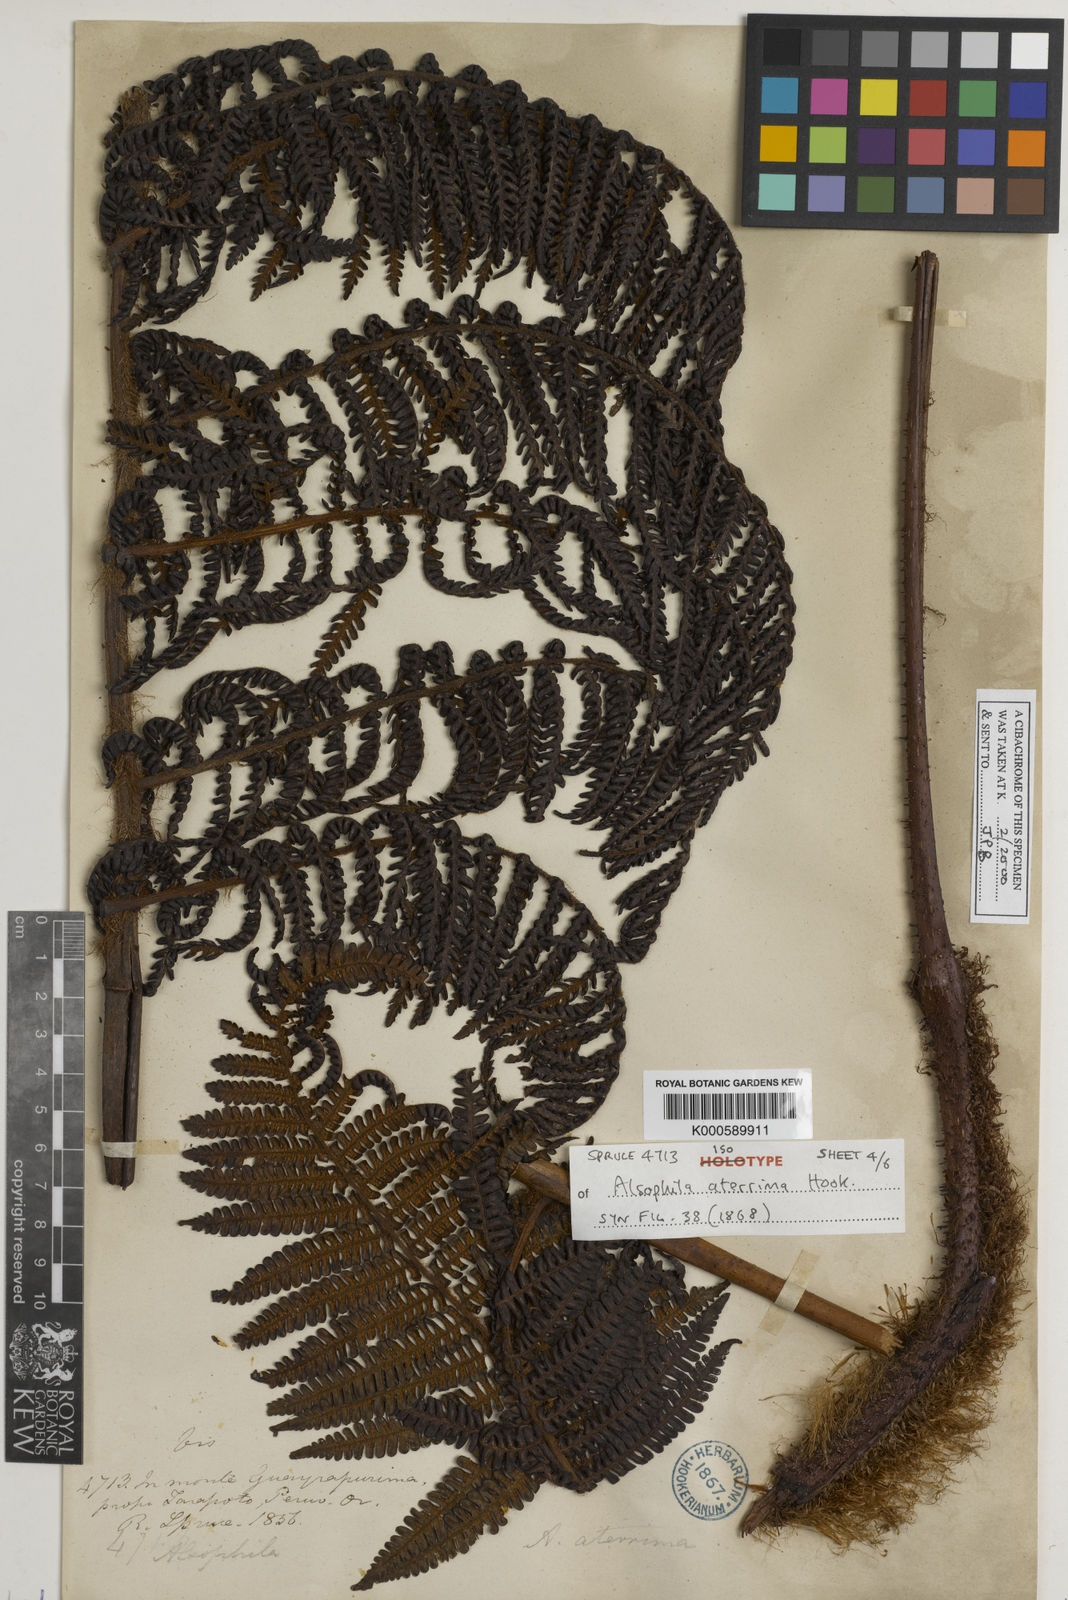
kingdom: Plantae
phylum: Tracheophyta
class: Polypodiopsida
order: Cyatheales
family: Cyatheaceae
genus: Cyathea
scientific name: Cyathea aterrima
